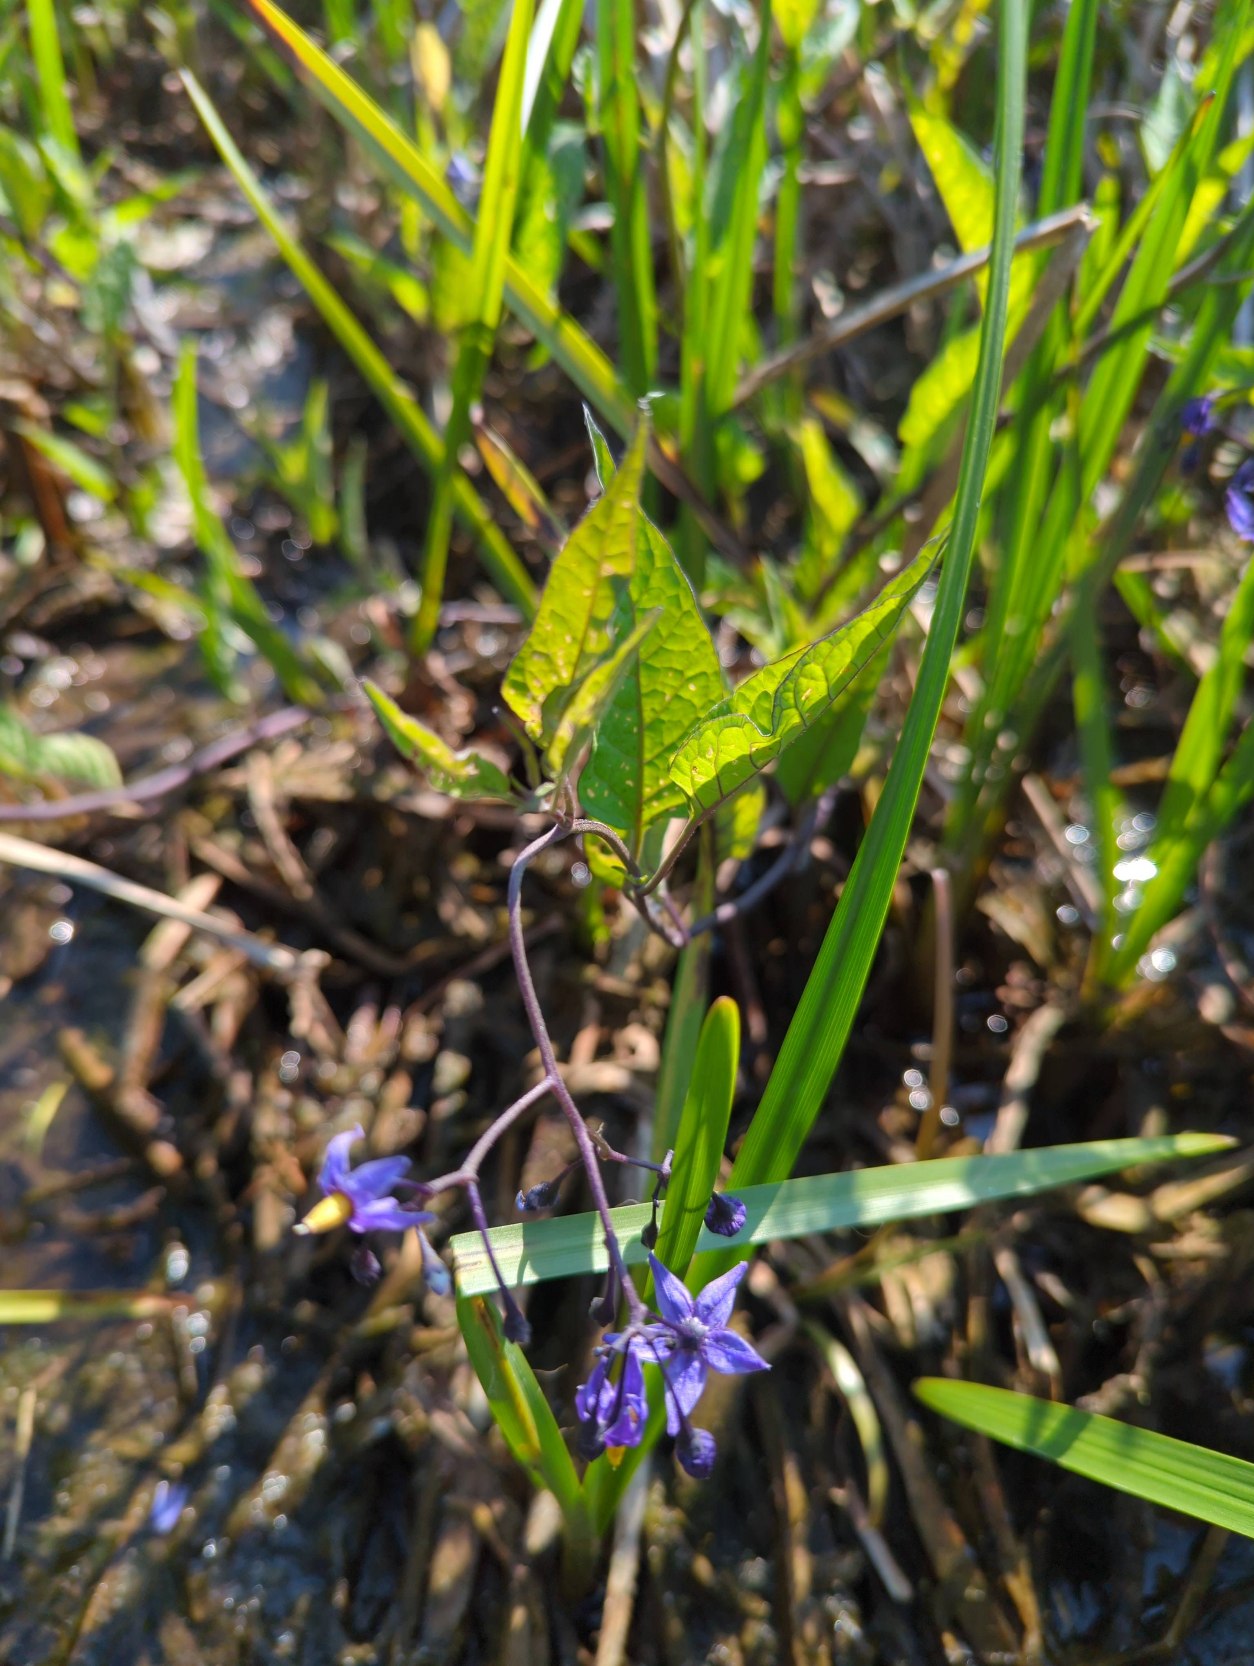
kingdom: Plantae
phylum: Tracheophyta
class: Magnoliopsida
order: Solanales
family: Solanaceae
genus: Solanum
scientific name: Solanum dulcamara
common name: Bittersød natskygge
